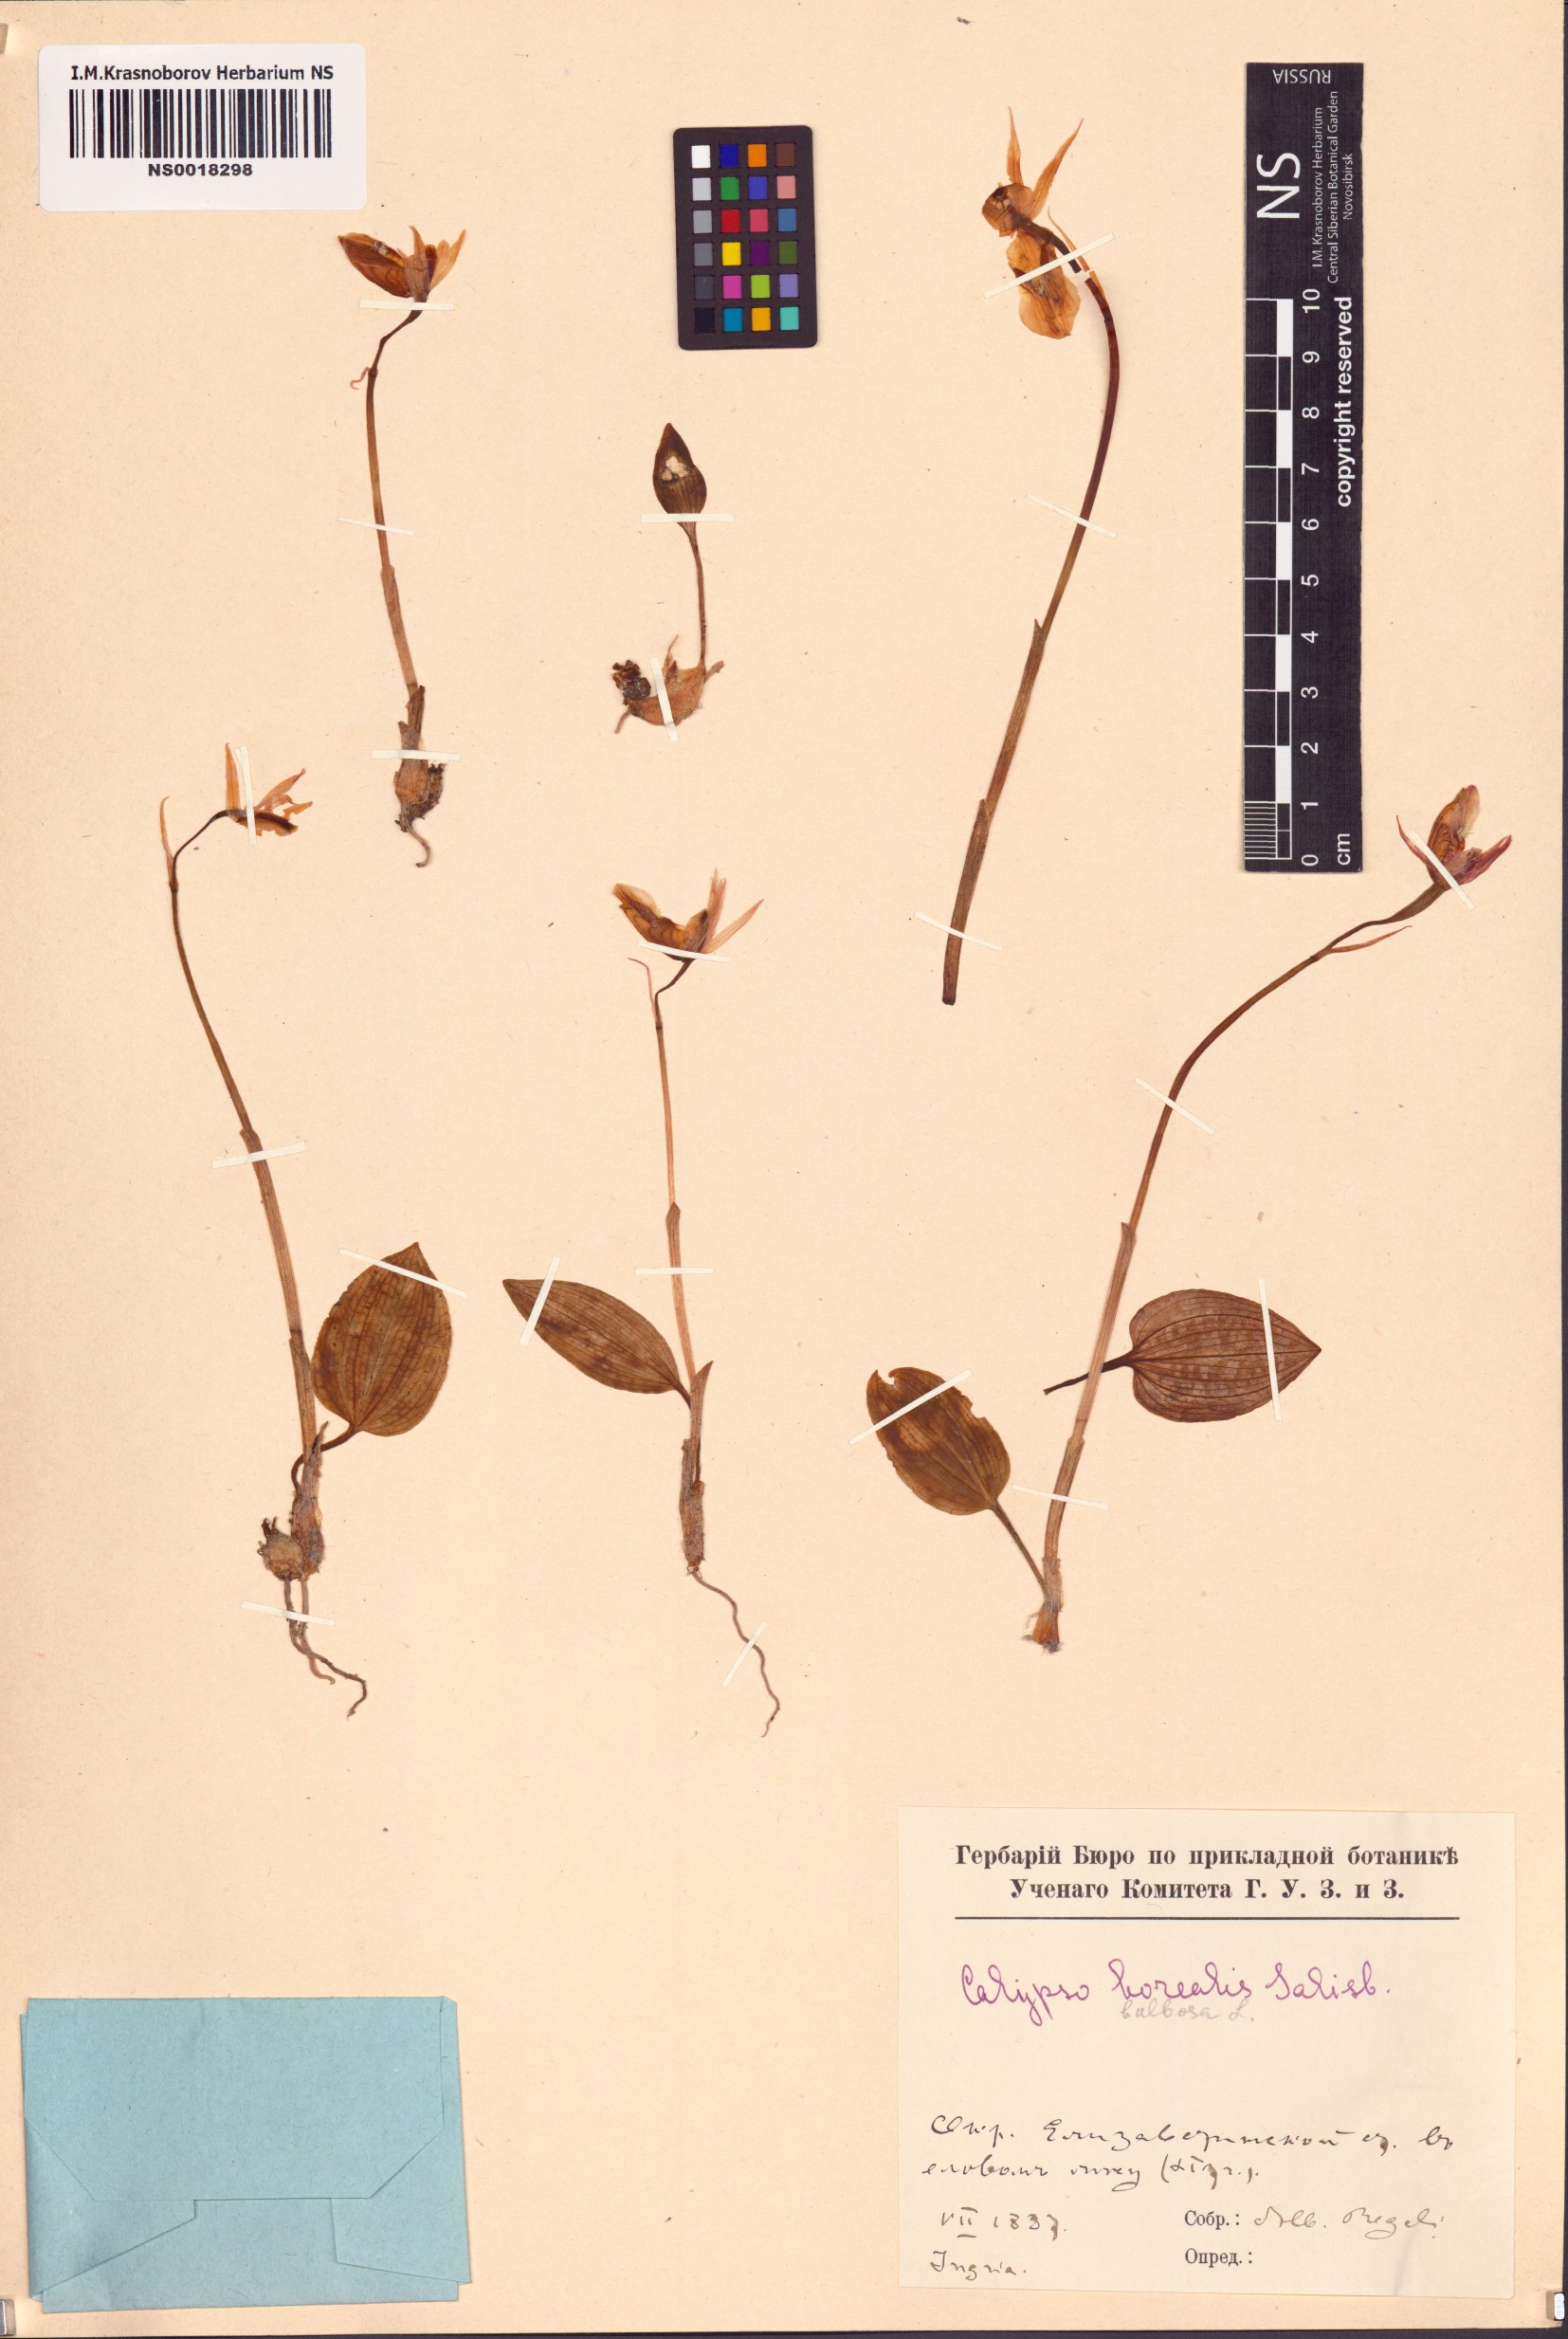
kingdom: Plantae
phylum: Tracheophyta
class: Liliopsida
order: Asparagales
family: Orchidaceae
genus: Calypso
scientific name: Calypso bulbosa
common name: Calypso
